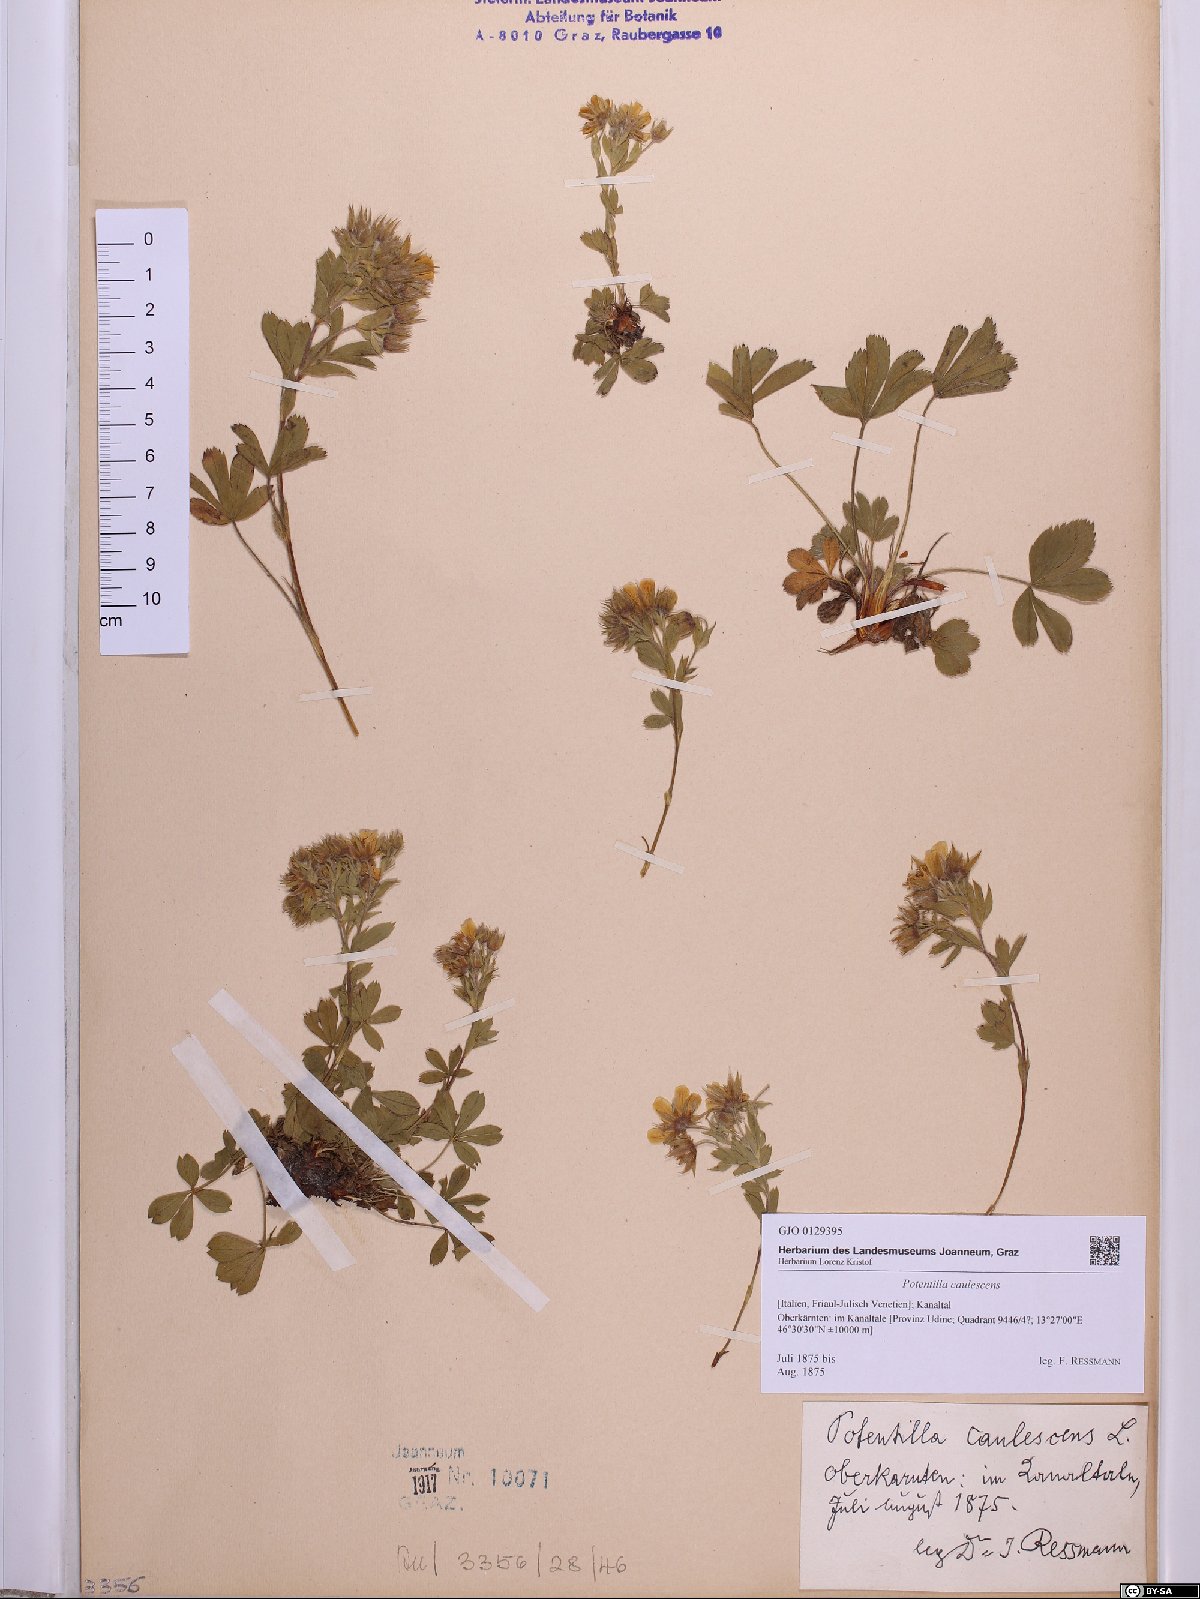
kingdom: Plantae
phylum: Tracheophyta
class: Magnoliopsida
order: Rosales
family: Rosaceae
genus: Potentilla
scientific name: Potentilla caulescens
